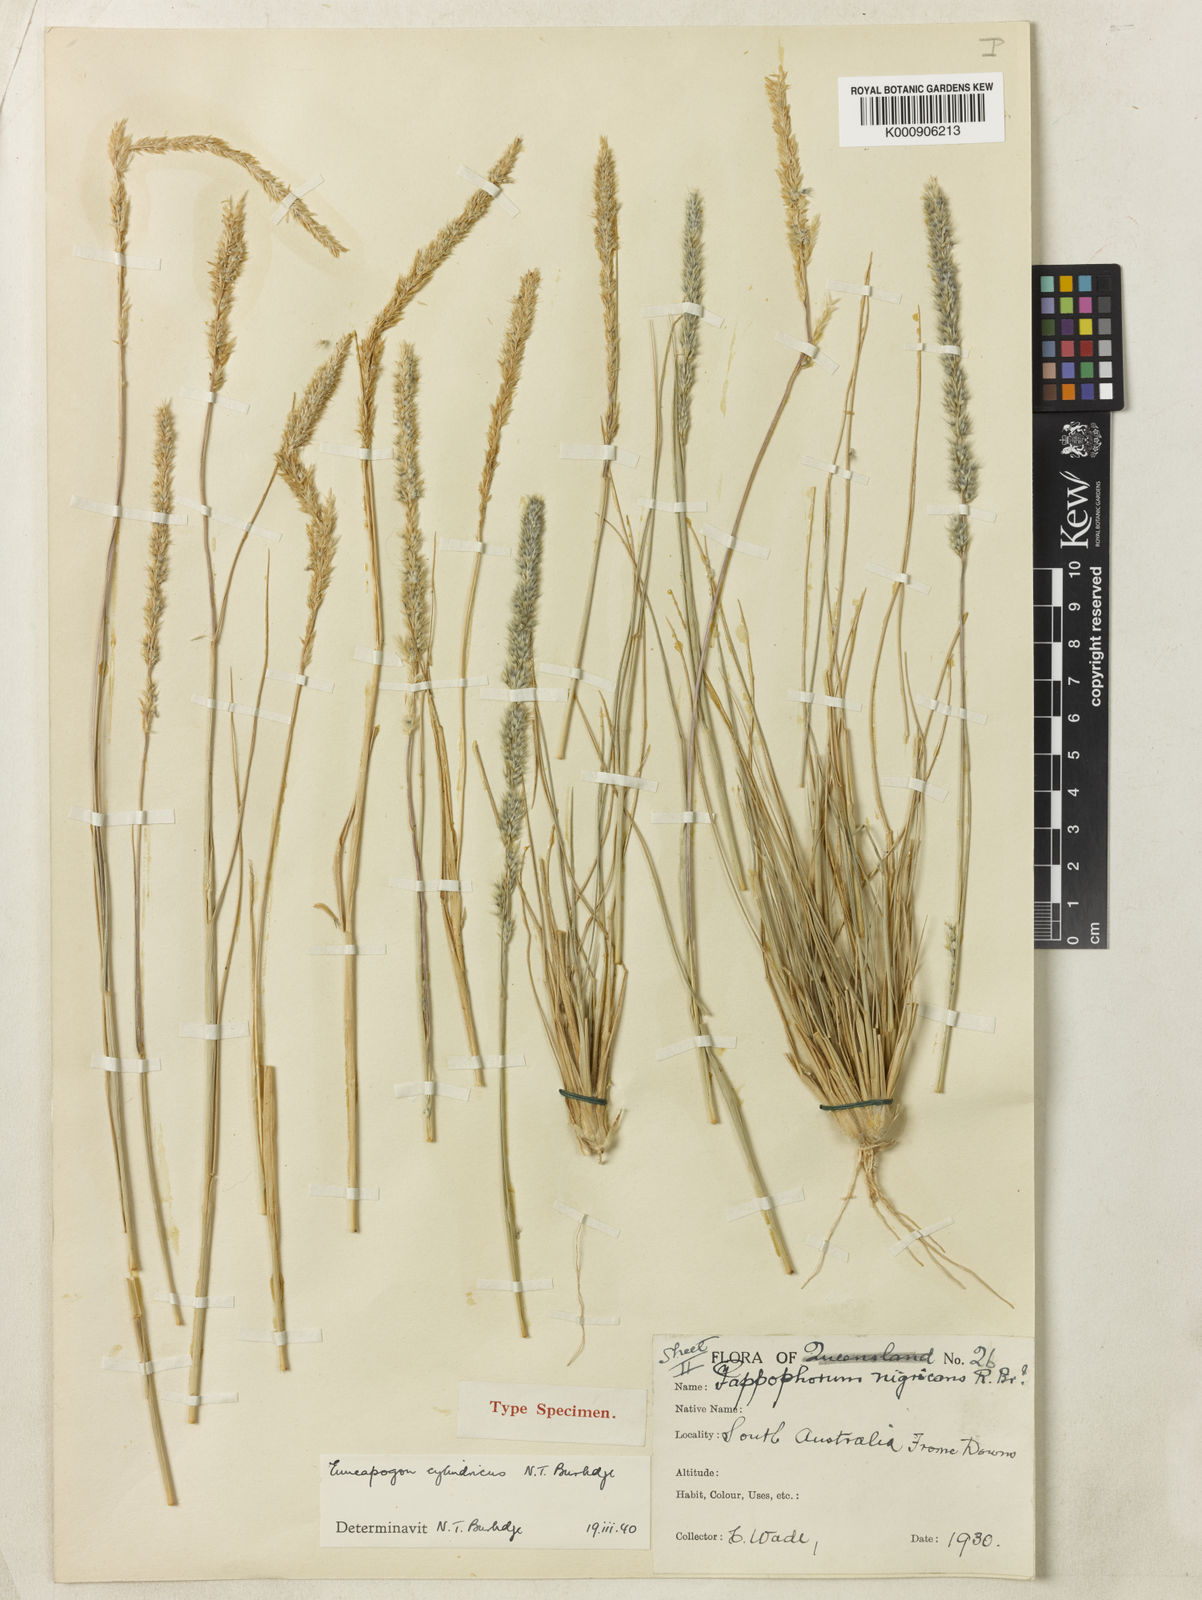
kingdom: Plantae
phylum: Tracheophyta
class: Liliopsida
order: Poales
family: Poaceae
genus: Enneapogon
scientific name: Enneapogon cylindricus
